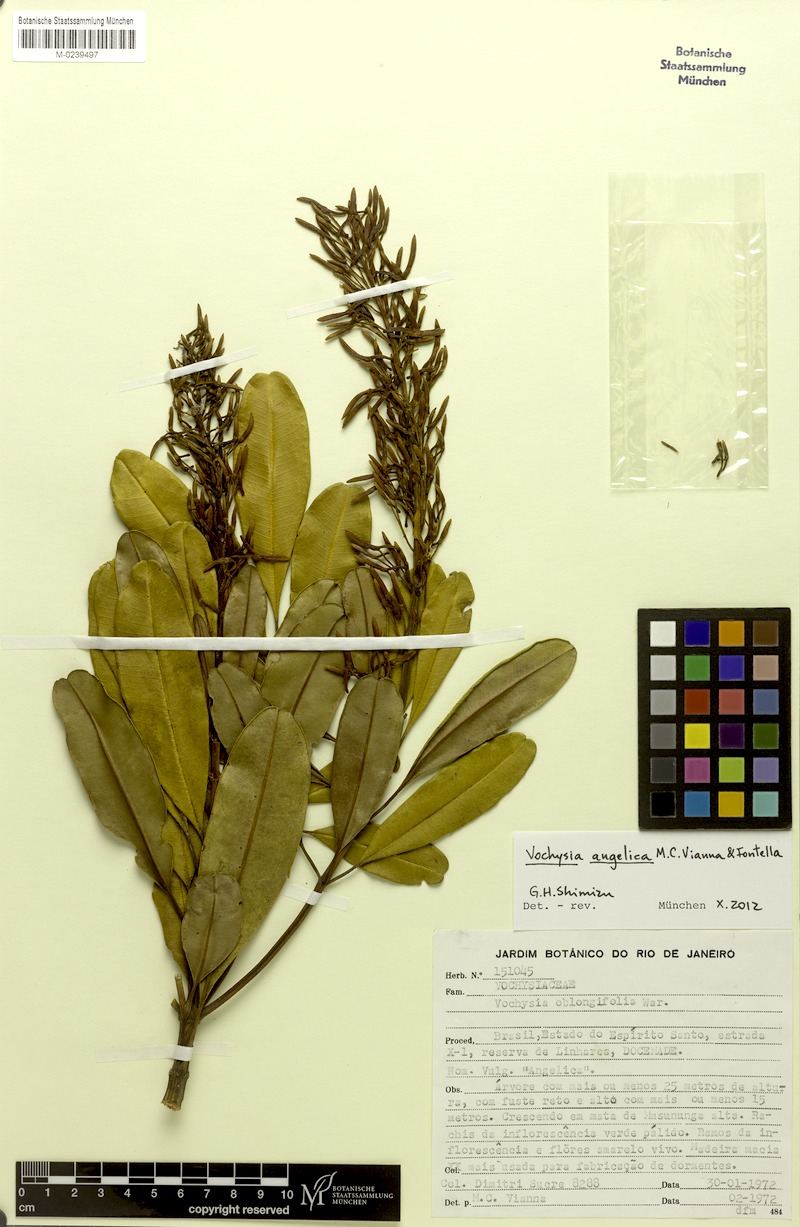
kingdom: Plantae
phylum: Tracheophyta
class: Magnoliopsida
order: Myrtales
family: Vochysiaceae
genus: Vochysia
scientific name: Vochysia angelica
